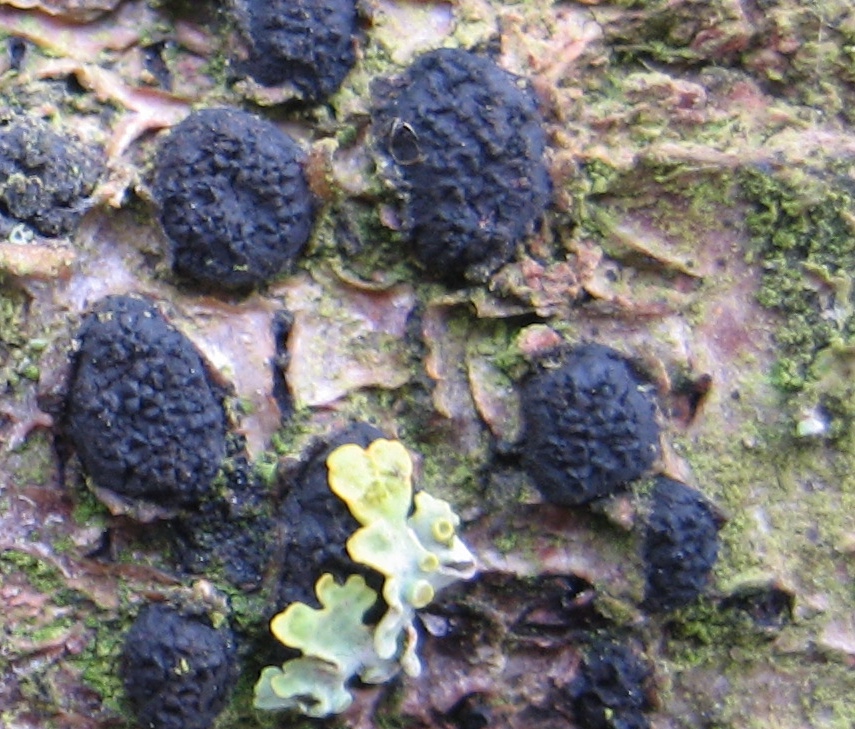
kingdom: Fungi
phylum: Ascomycota
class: Sordariomycetes
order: Xylariales
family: Diatrypaceae
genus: Diatrypella
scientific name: Diatrypella quercina
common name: ege-kulskorpe
